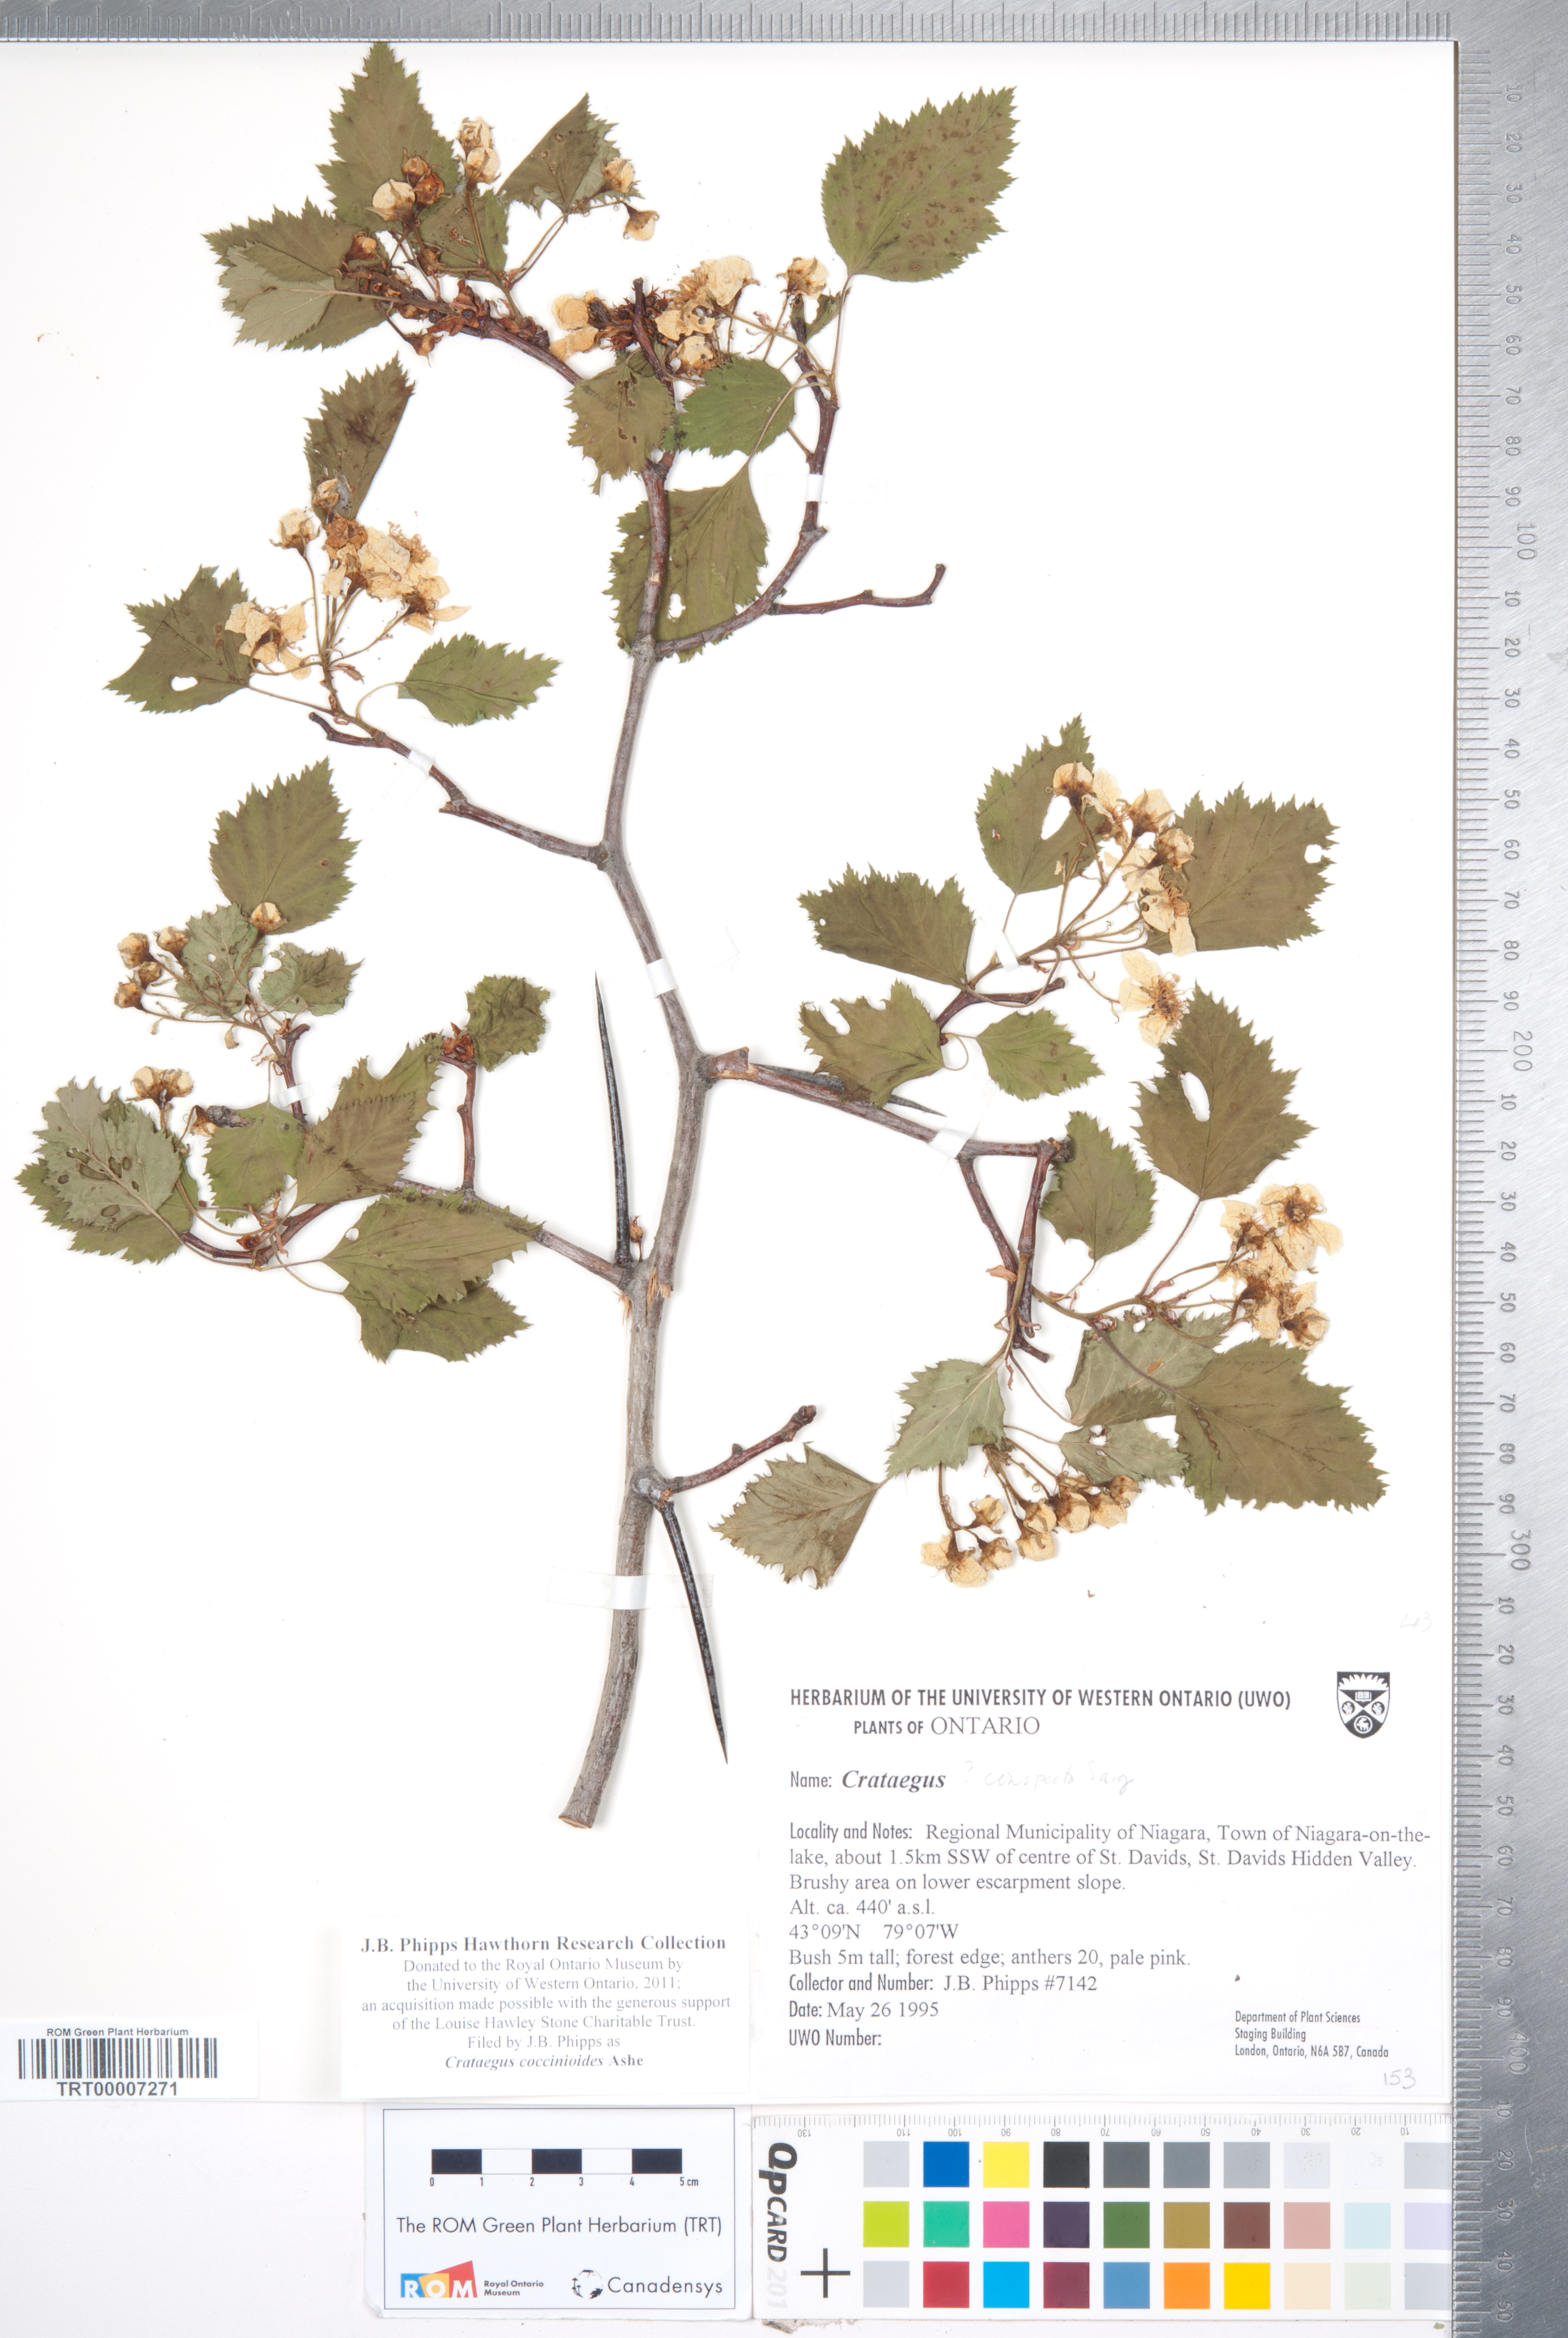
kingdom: Plantae
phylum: Tracheophyta
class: Magnoliopsida
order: Rosales
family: Rosaceae
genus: Crataegus
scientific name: Crataegus coccinioides
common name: Large-flowered cockspurthorn
